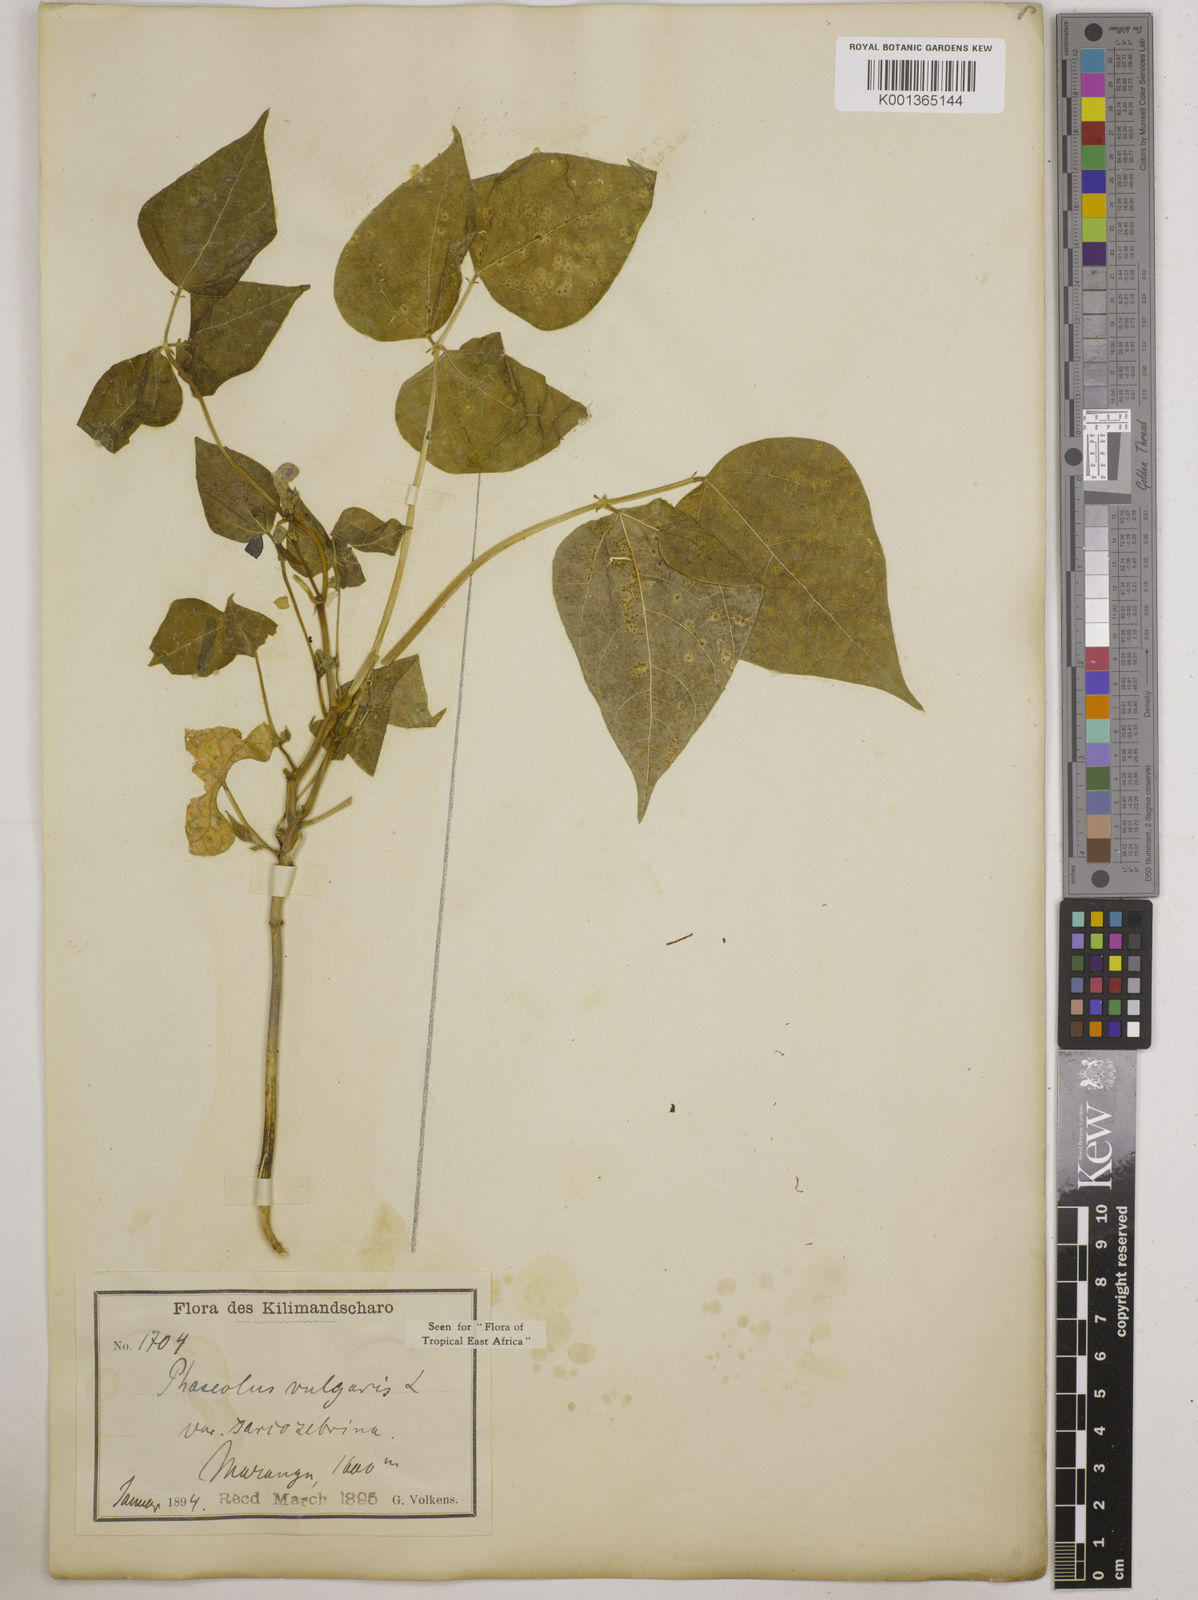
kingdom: Plantae
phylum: Tracheophyta
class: Magnoliopsida
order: Fabales
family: Fabaceae
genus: Phaseolus
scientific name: Phaseolus vulgaris
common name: Bean
